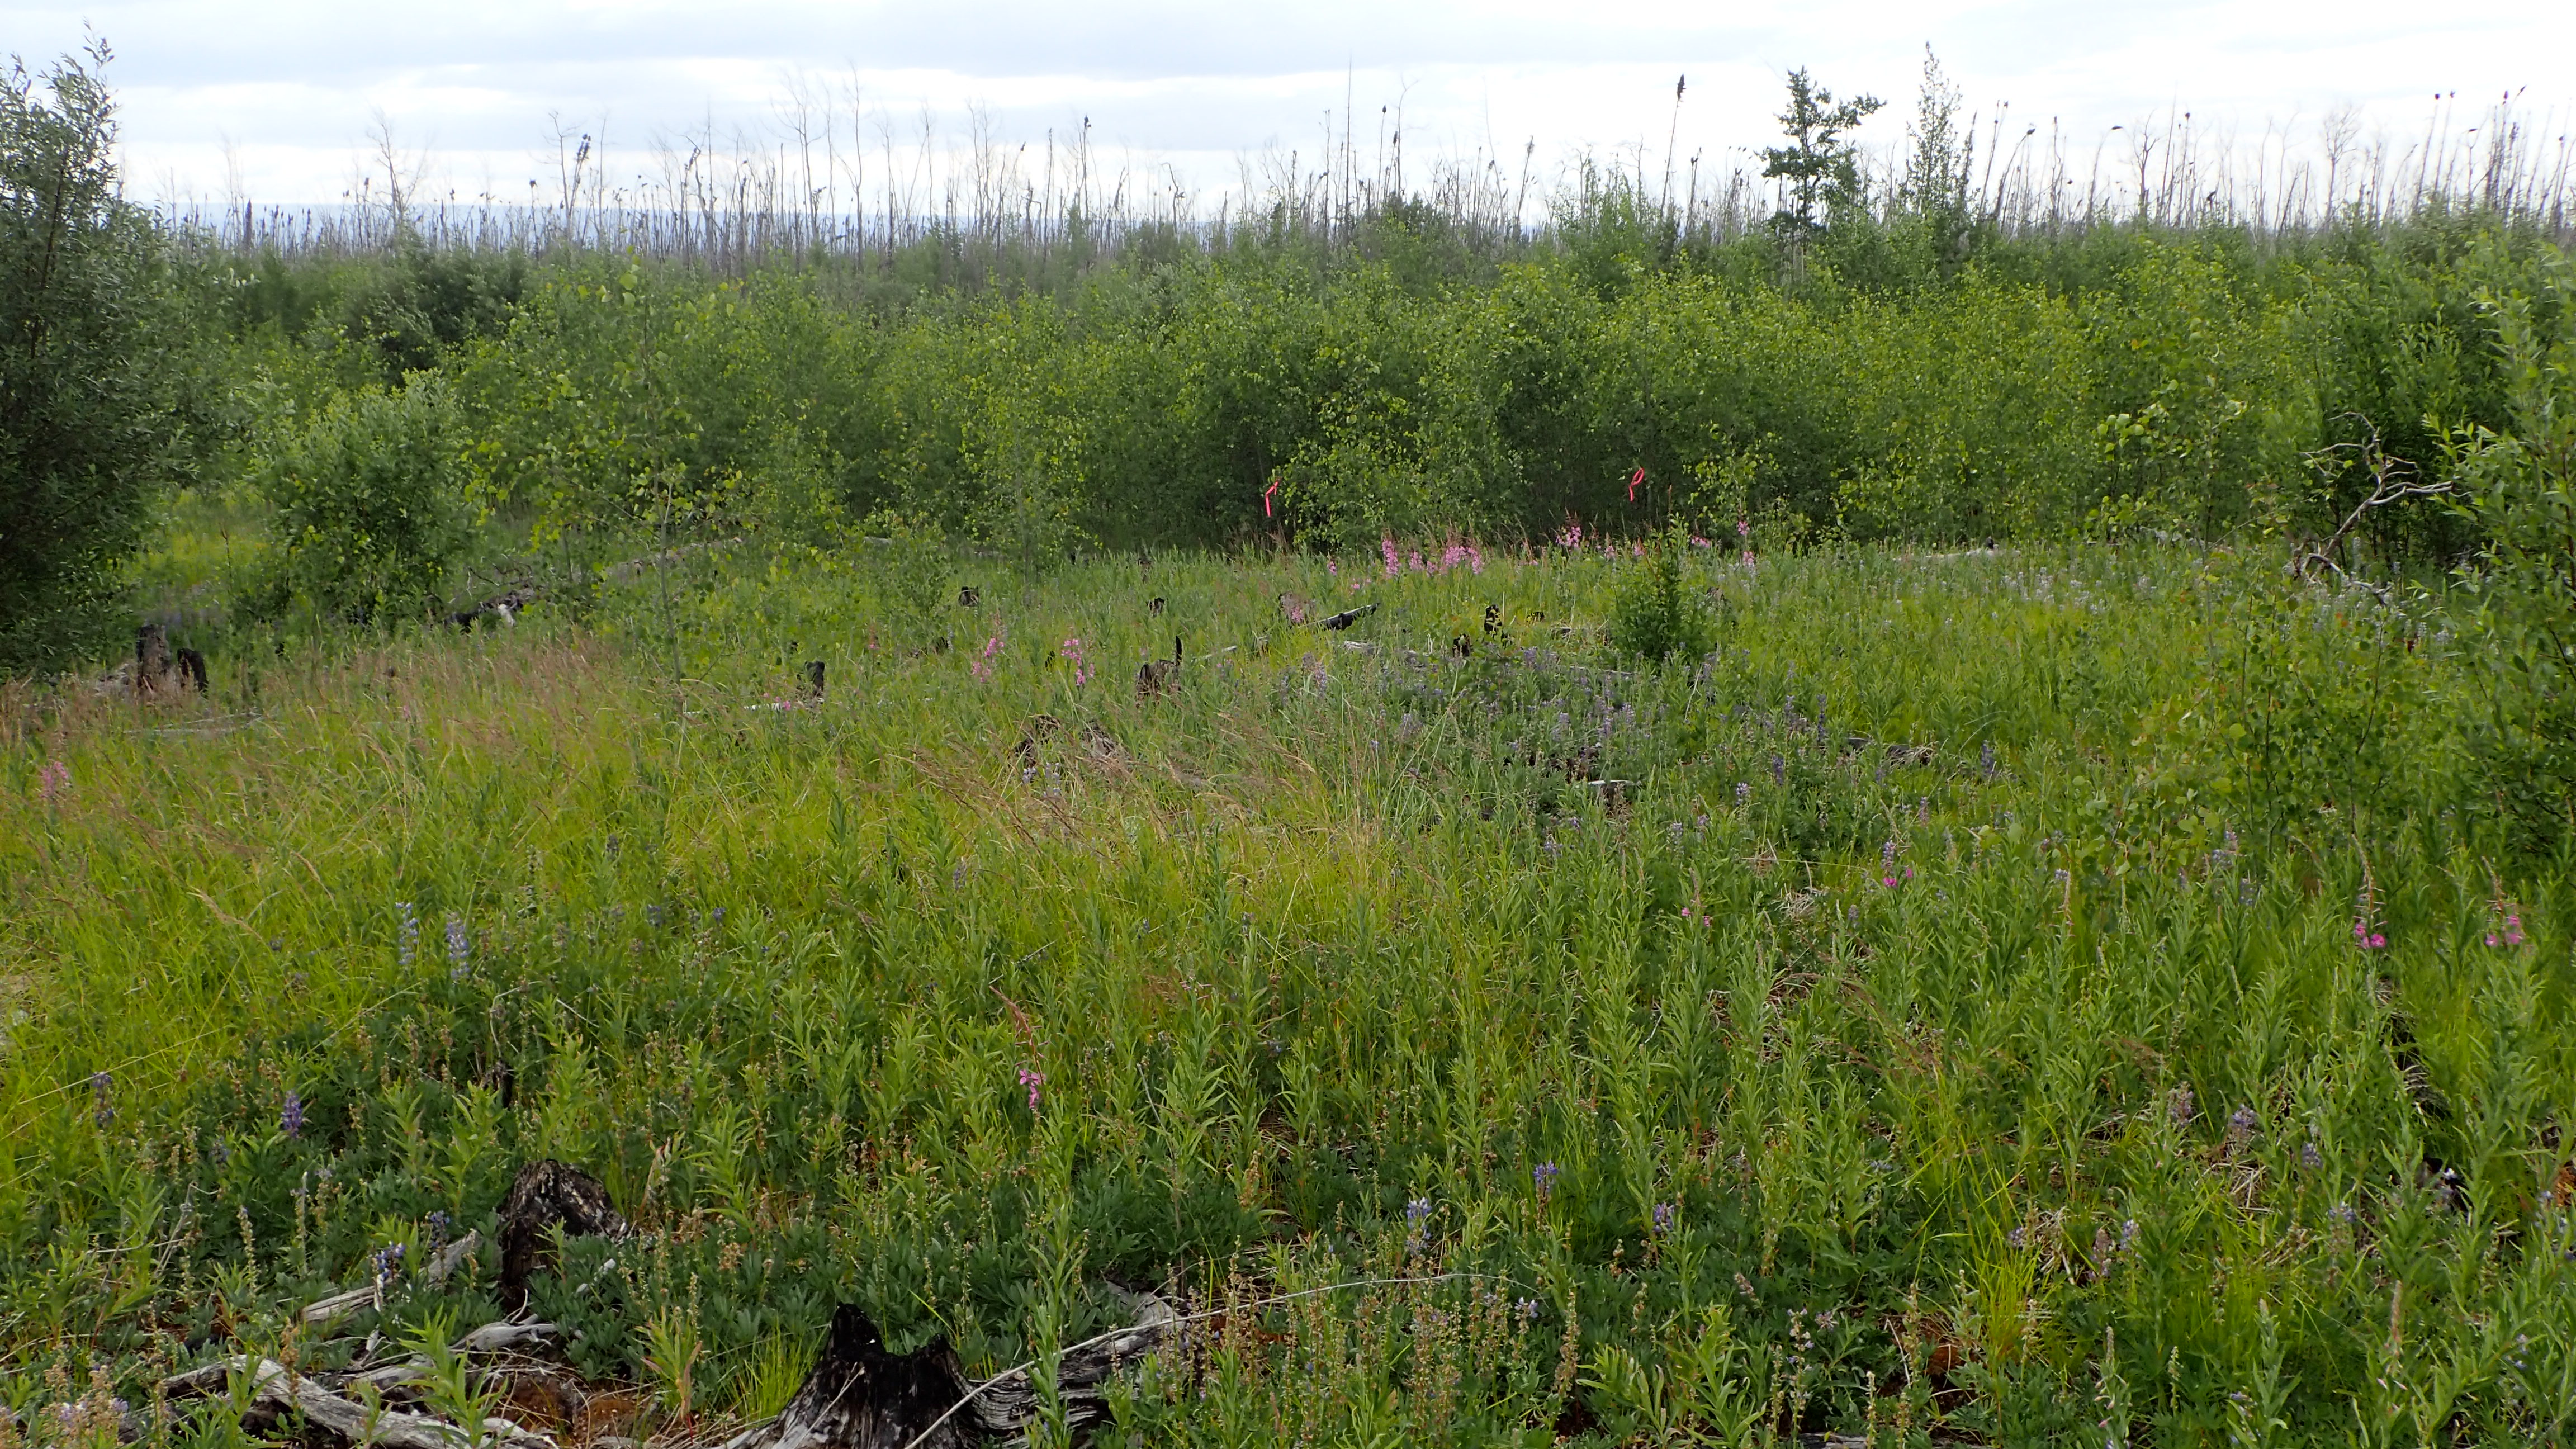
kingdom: Animalia
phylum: Arthropoda
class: Insecta
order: Coleoptera
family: Staphylinidae
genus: Aleochara
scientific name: Aleochara castaneipennis
